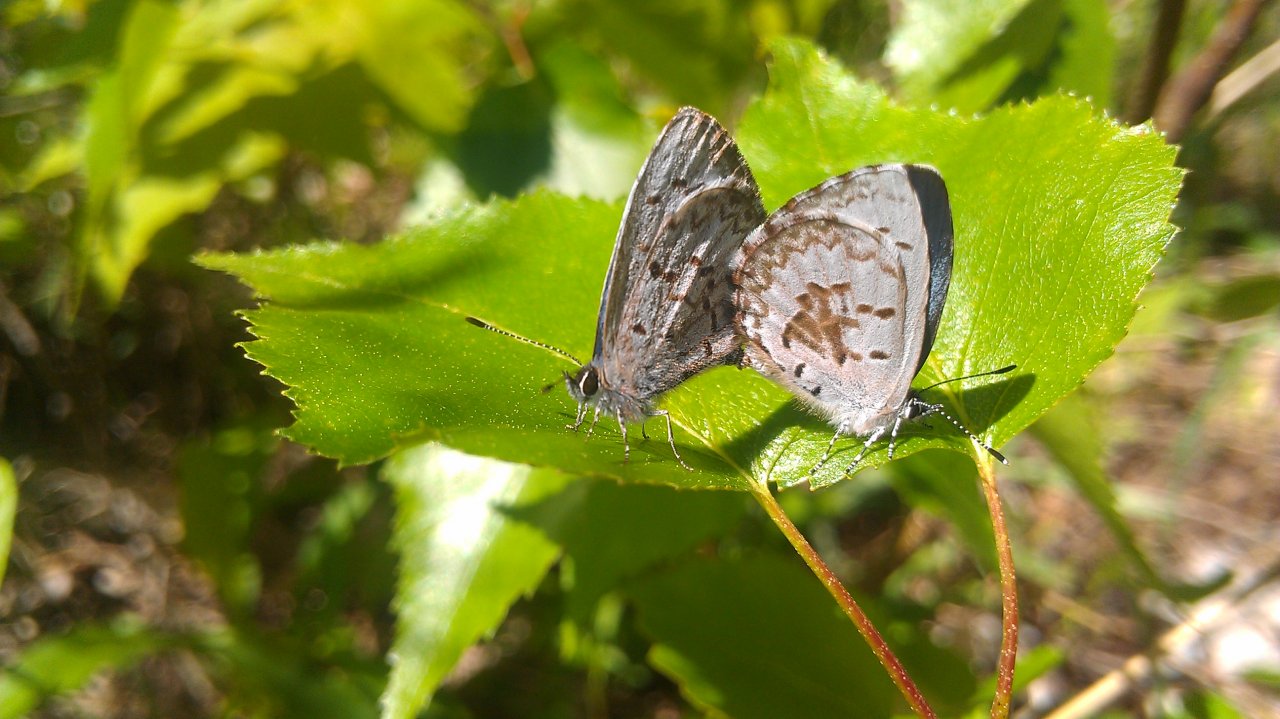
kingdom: Animalia
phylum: Arthropoda
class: Insecta
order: Lepidoptera
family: Lycaenidae
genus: Celastrina
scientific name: Celastrina lucia
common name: Northern Spring Azure
